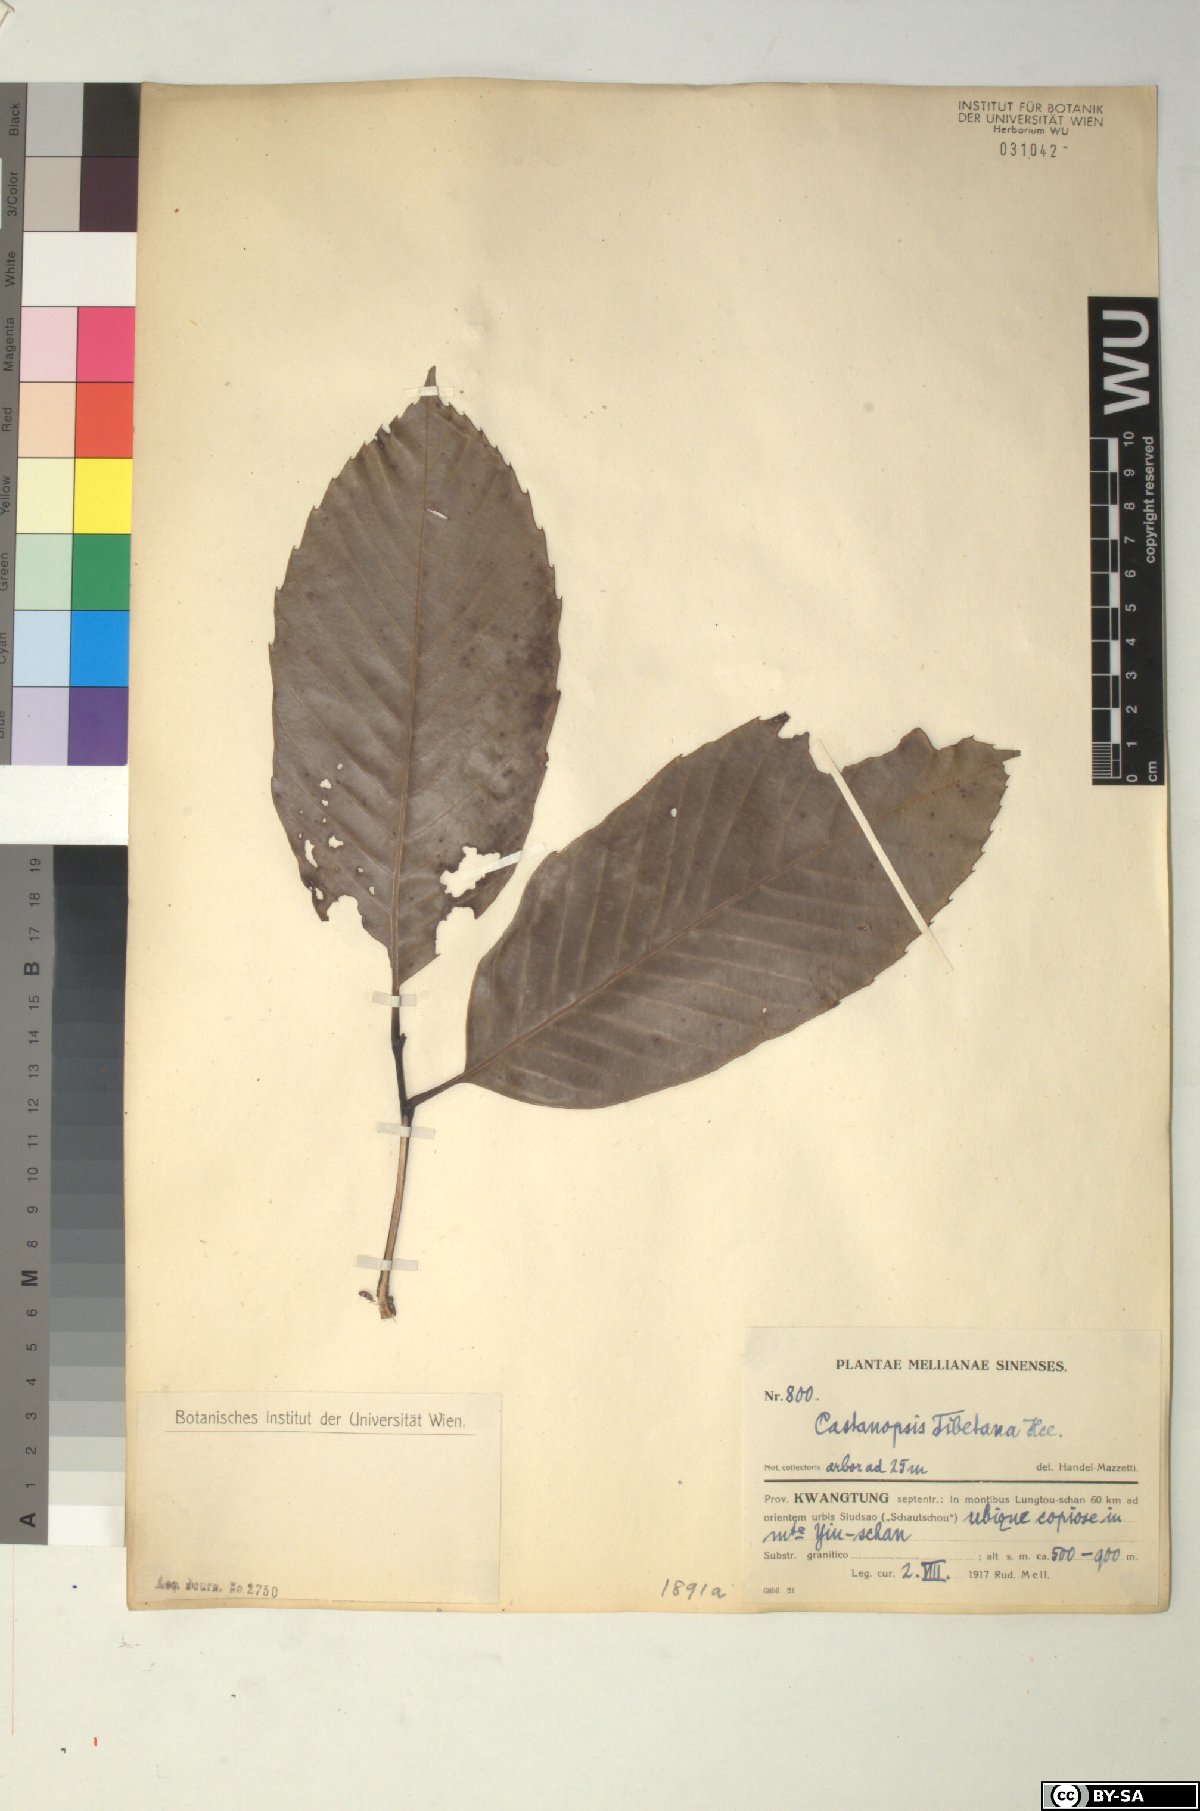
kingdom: Plantae
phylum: Tracheophyta
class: Magnoliopsida
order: Fagales
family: Fagaceae
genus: Castanopsis
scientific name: Castanopsis tibetana
